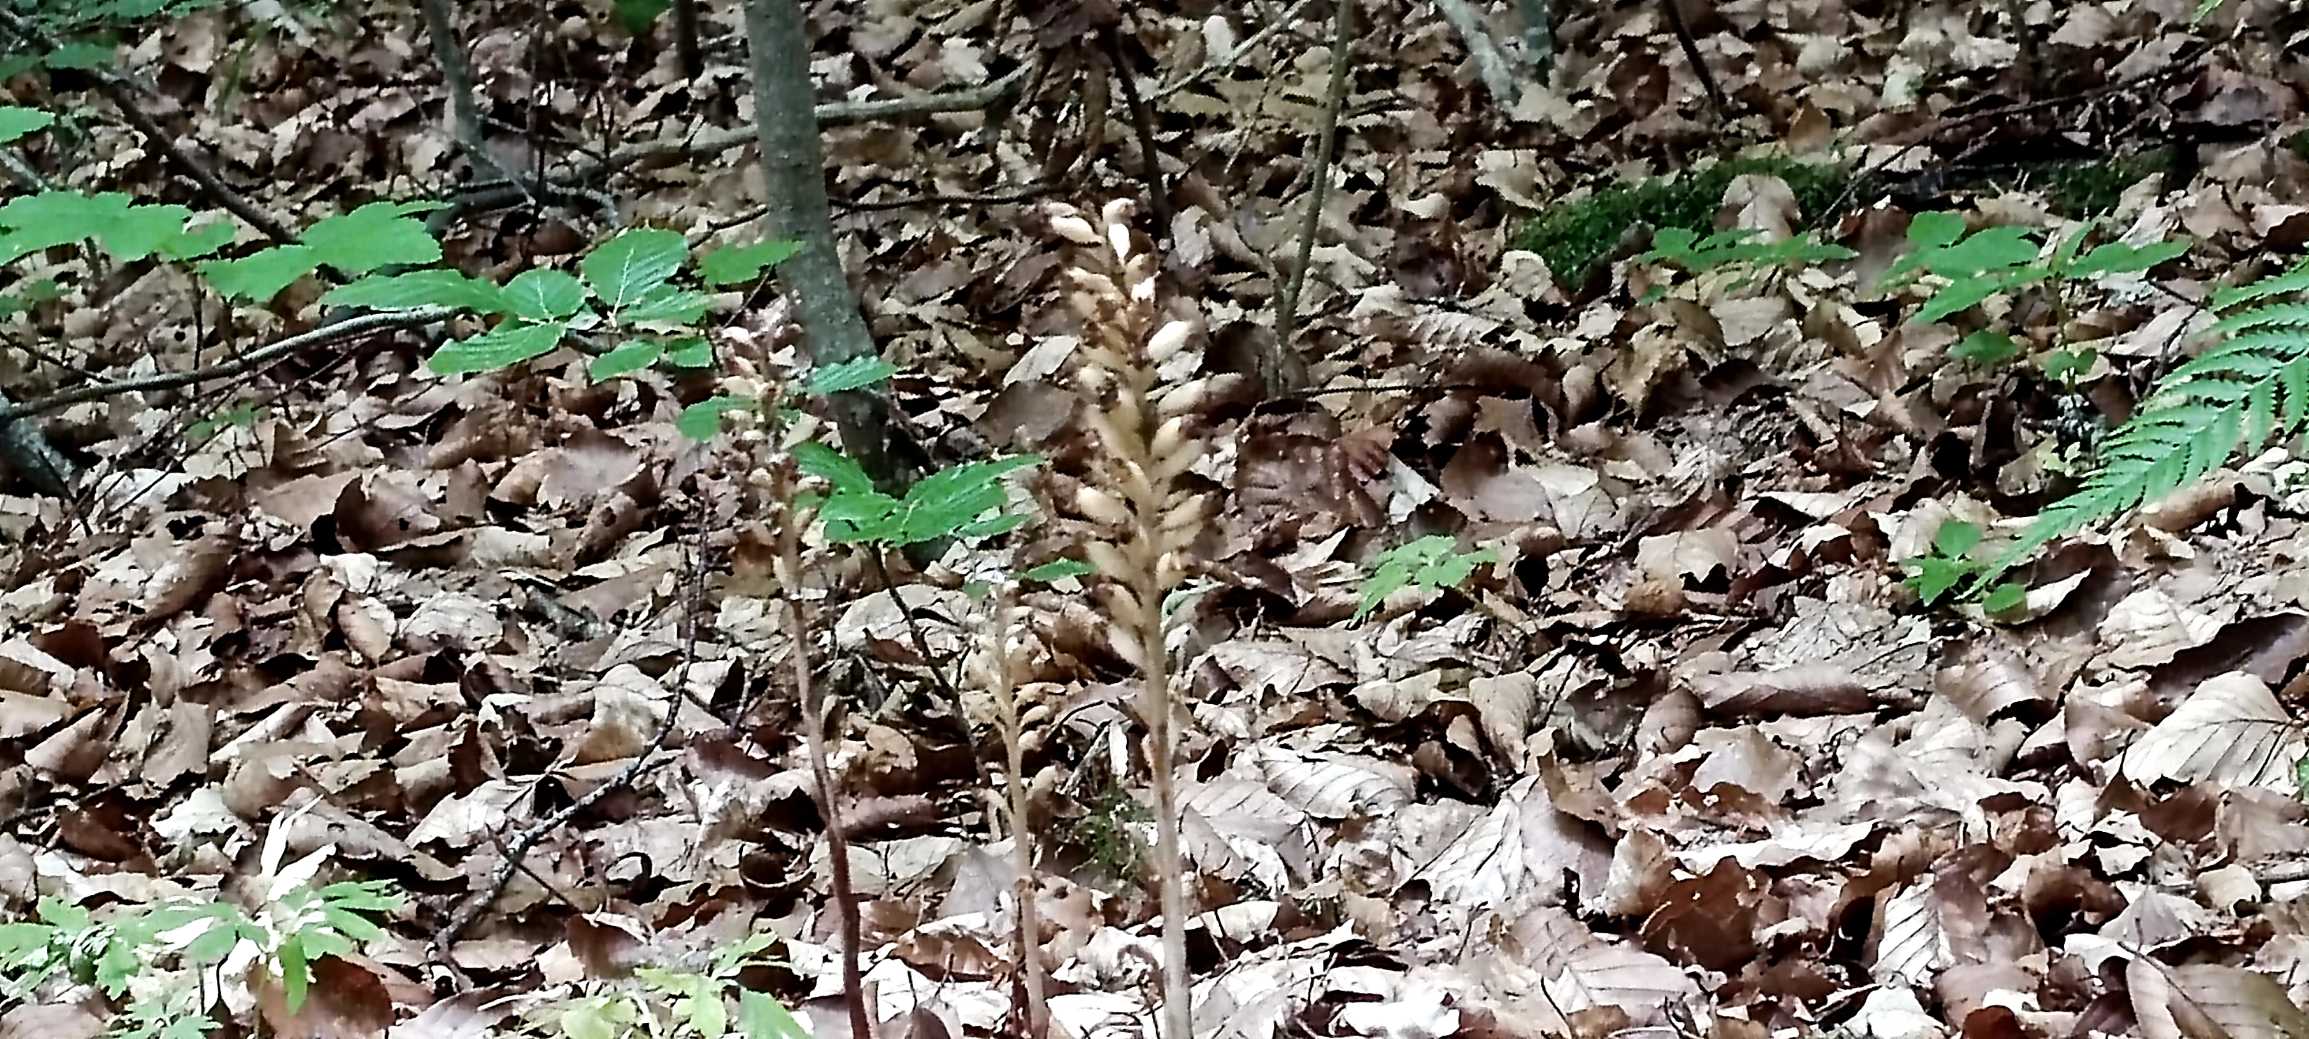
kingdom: Plantae
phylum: Tracheophyta
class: Liliopsida
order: Asparagales
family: Orchidaceae
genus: Neottia
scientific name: Neottia nidus-avis
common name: Rederod
